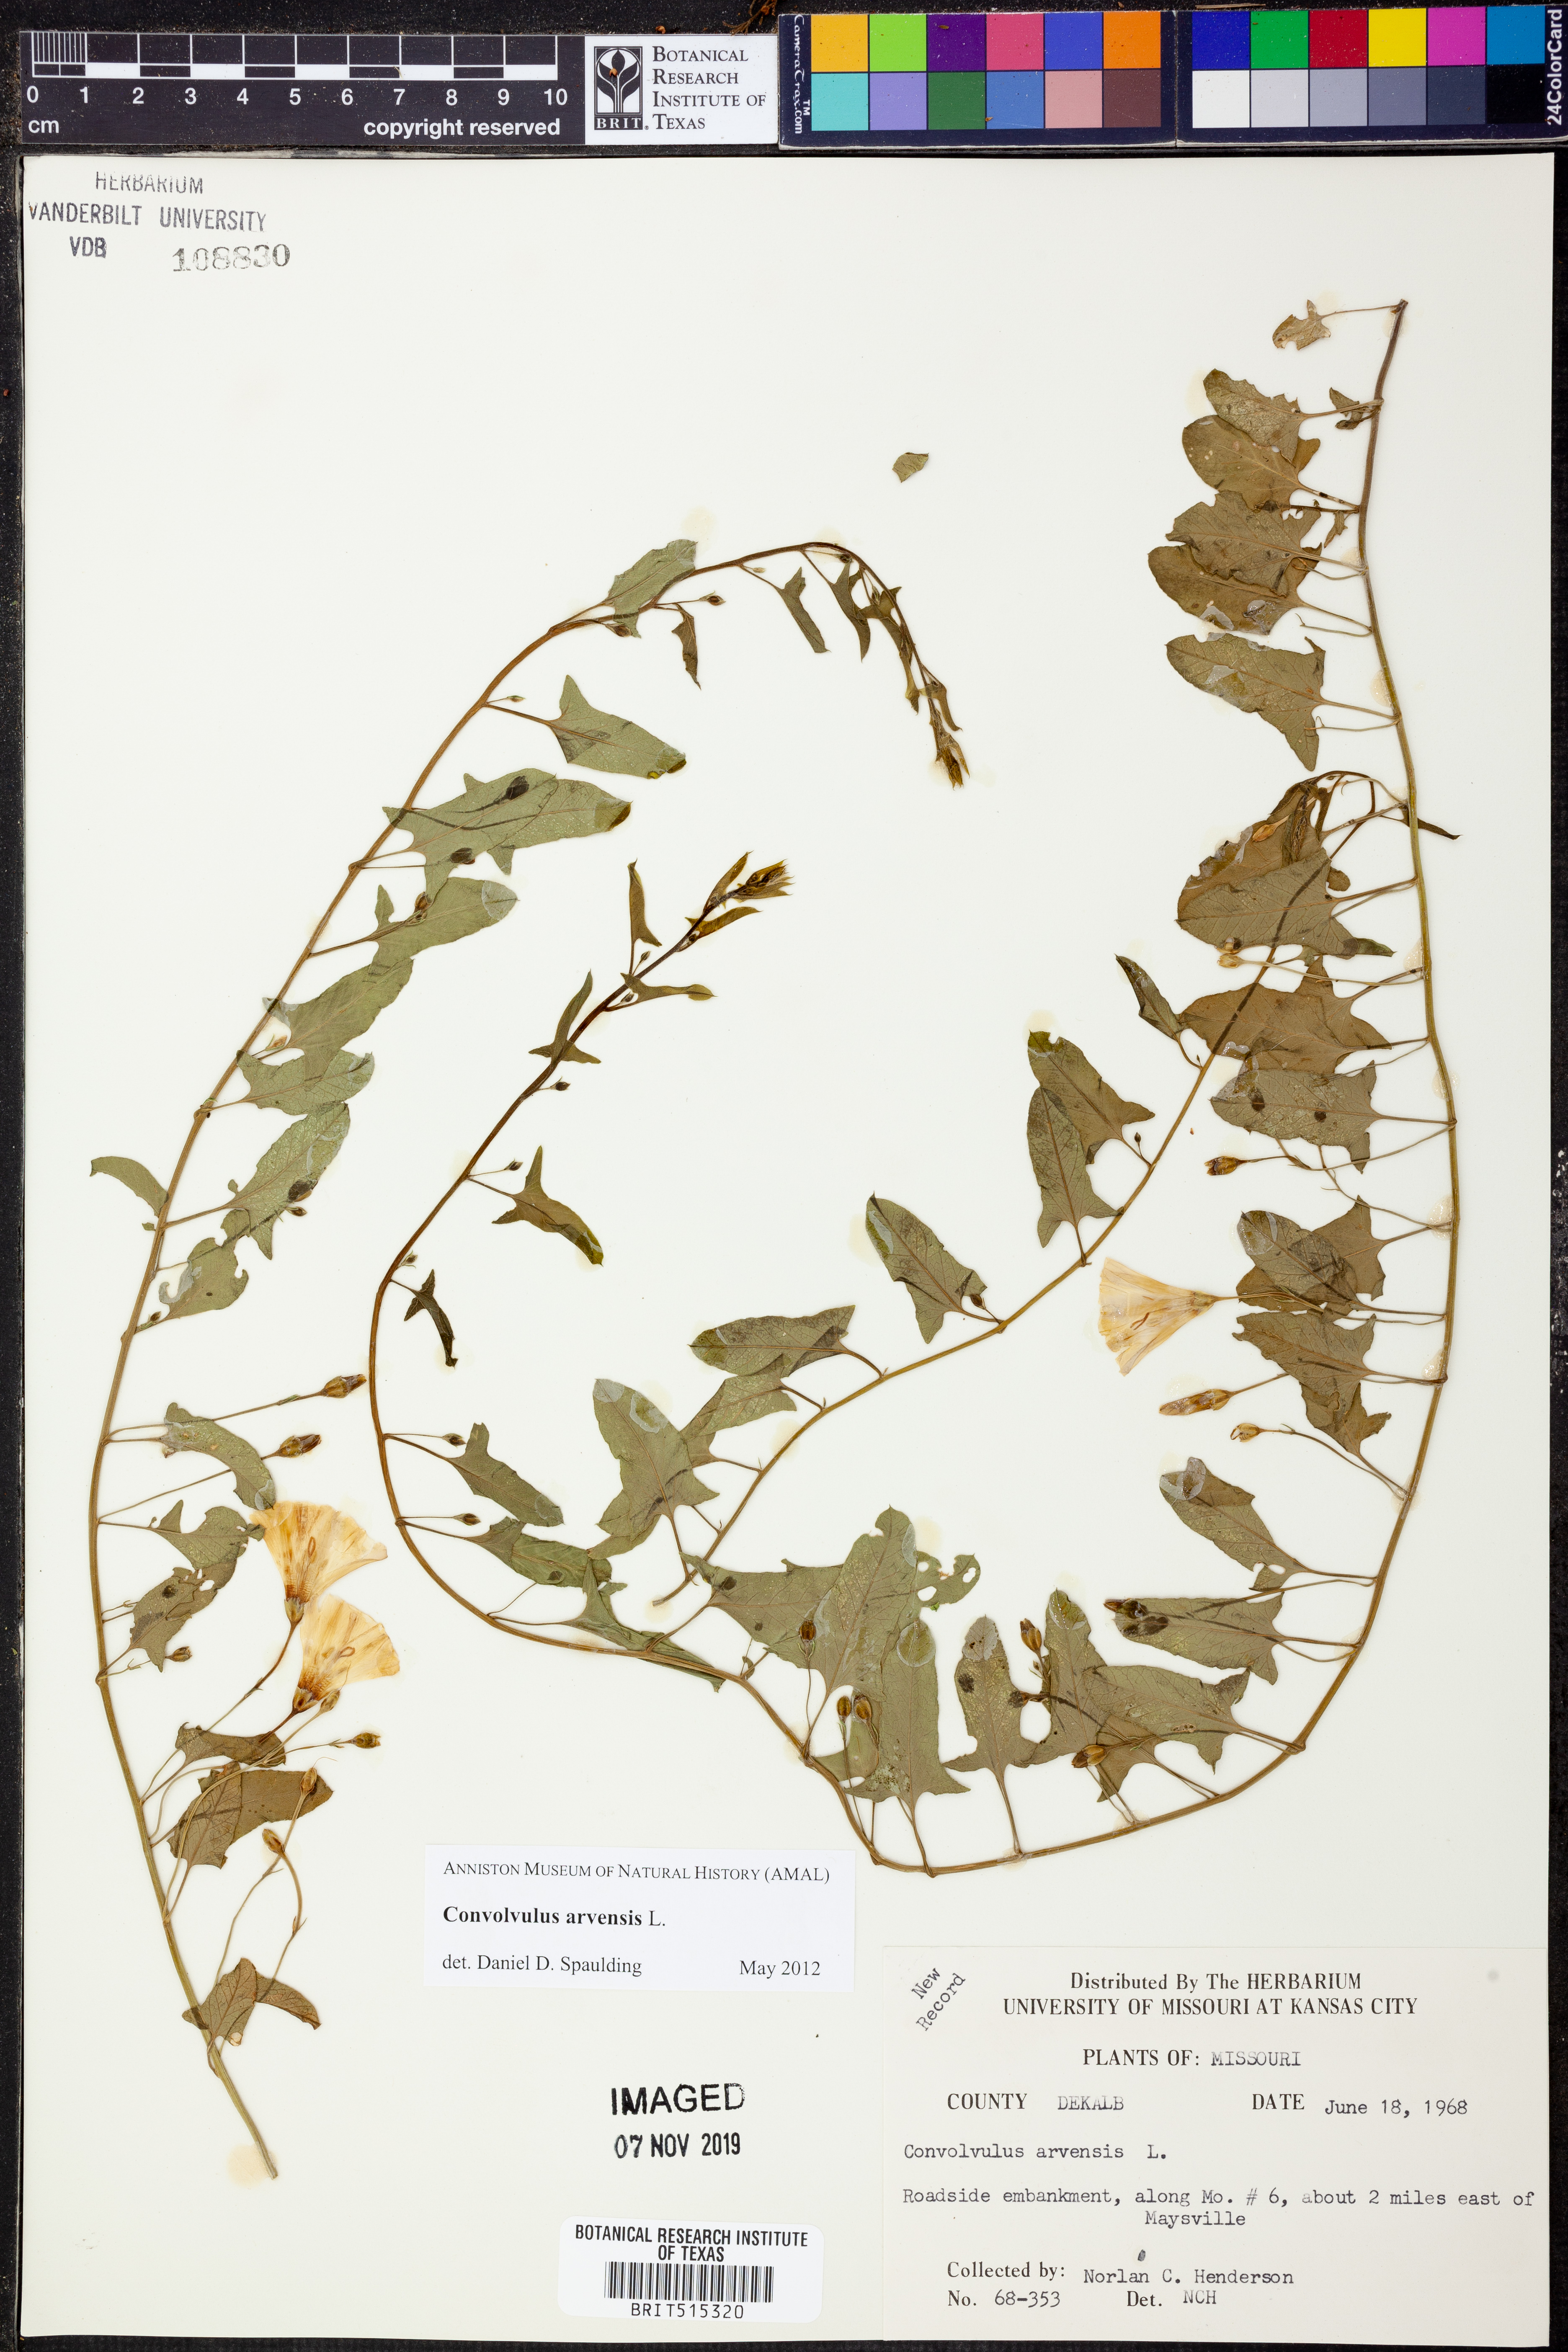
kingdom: Plantae
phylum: Tracheophyta
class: Magnoliopsida
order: Solanales
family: Convolvulaceae
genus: Convolvulus
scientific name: Convolvulus arvensis
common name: Field bindweed
